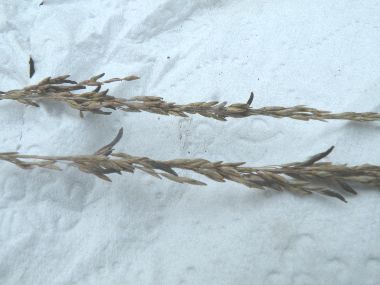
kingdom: Fungi
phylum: Ascomycota
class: Sordariomycetes
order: Hypocreales
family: Clavicipitaceae
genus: Claviceps
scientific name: Claviceps purpurea
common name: almindelig meldrøjer
